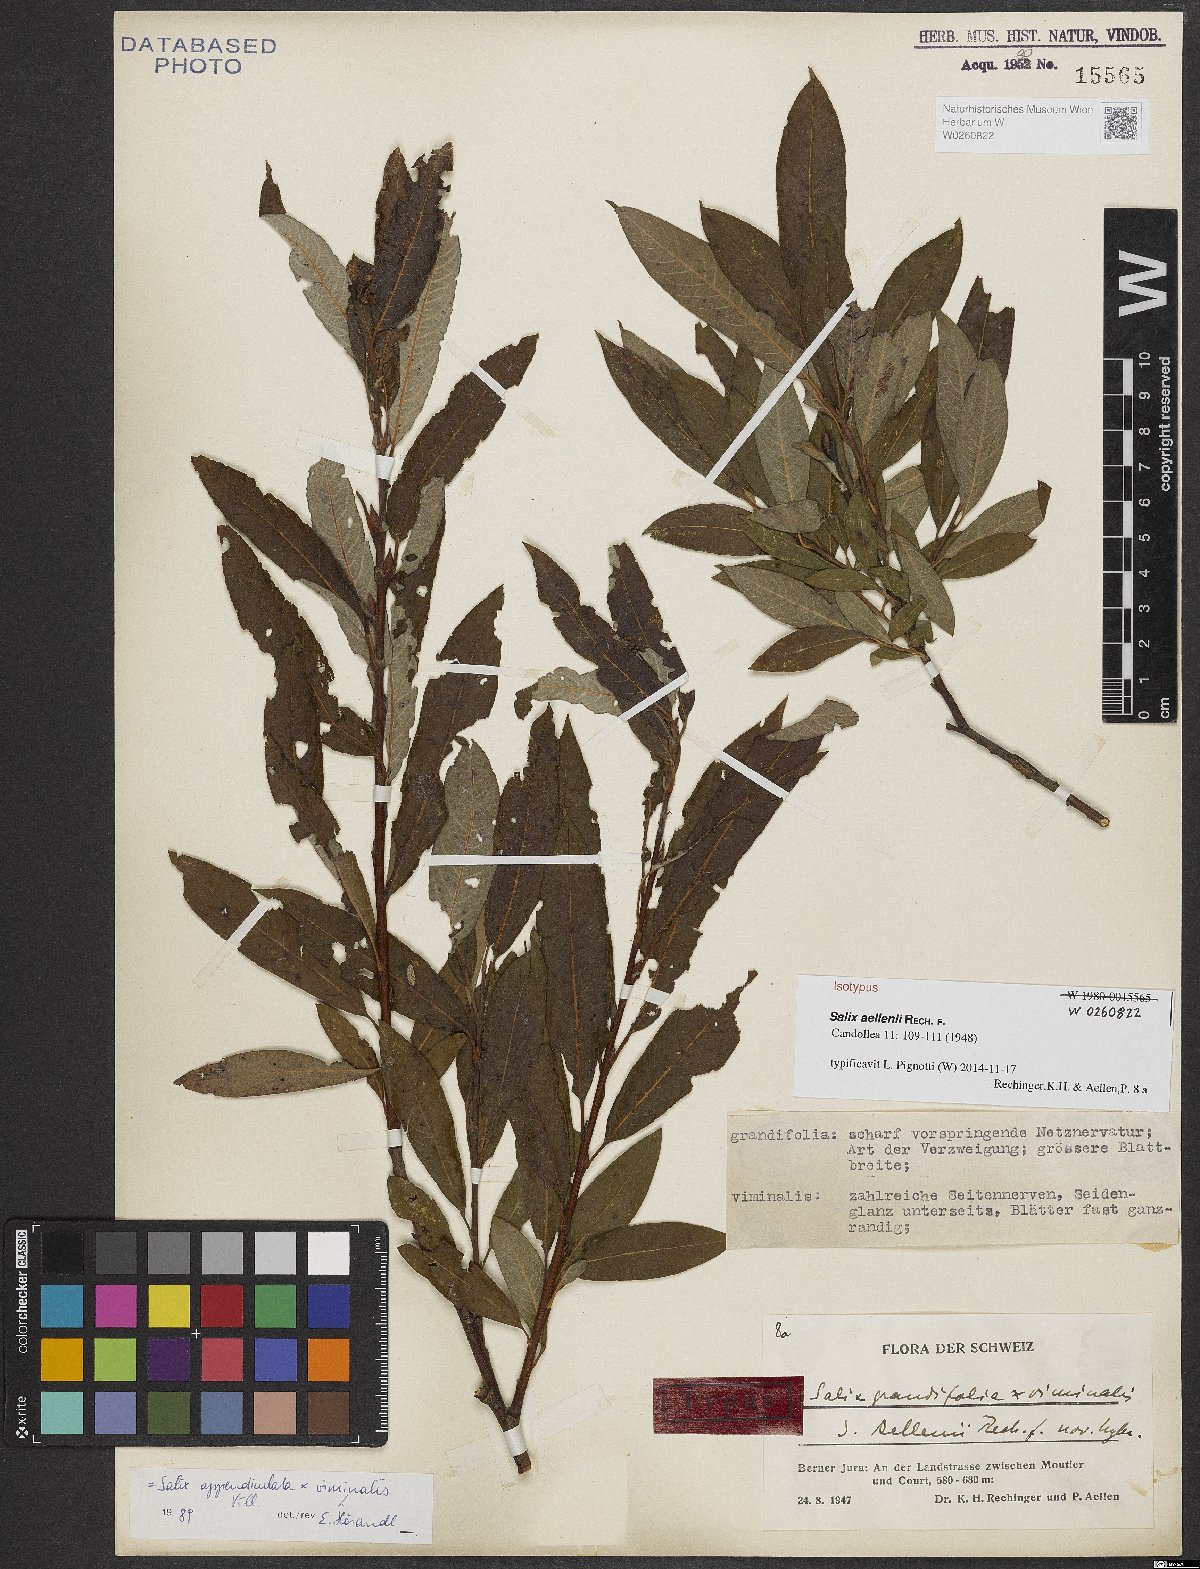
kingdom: Plantae
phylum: Tracheophyta
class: Magnoliopsida
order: Malpighiales
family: Salicaceae
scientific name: Salicaceae
